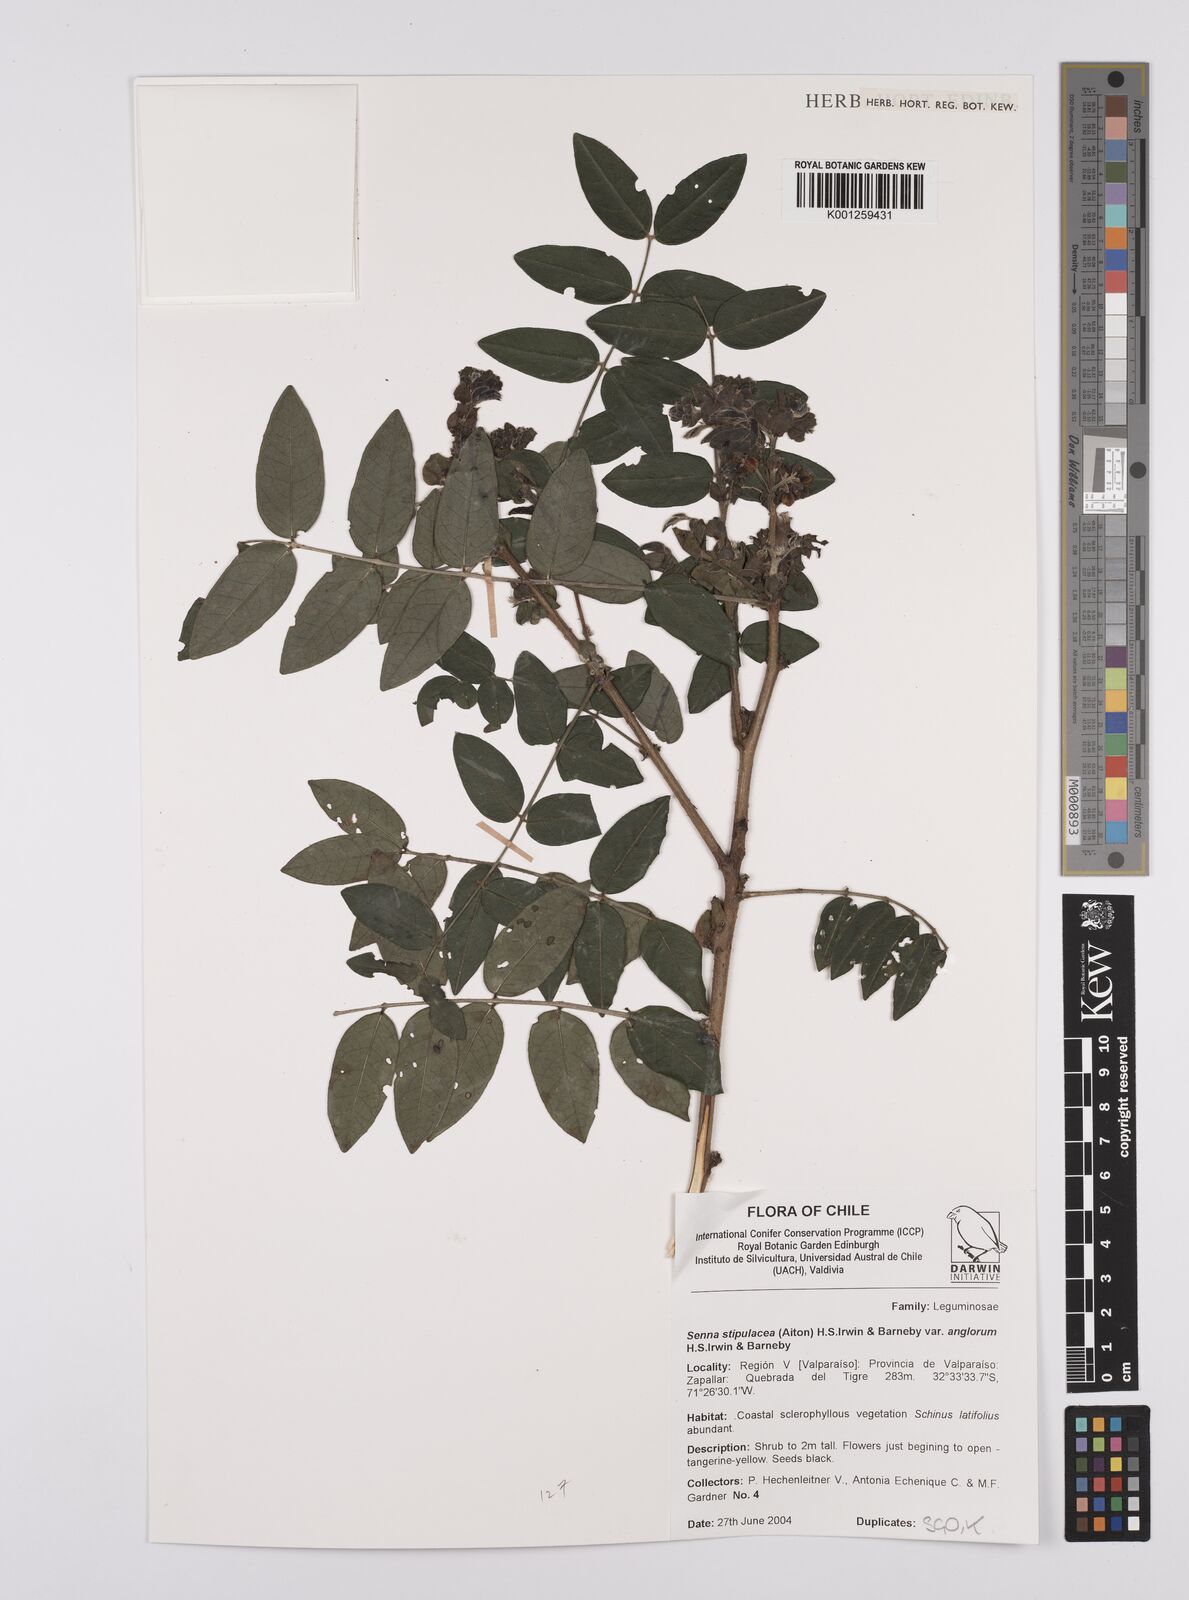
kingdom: Plantae
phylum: Tracheophyta
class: Magnoliopsida
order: Fabales
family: Fabaceae
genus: Senna
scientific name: Senna stipulacea
